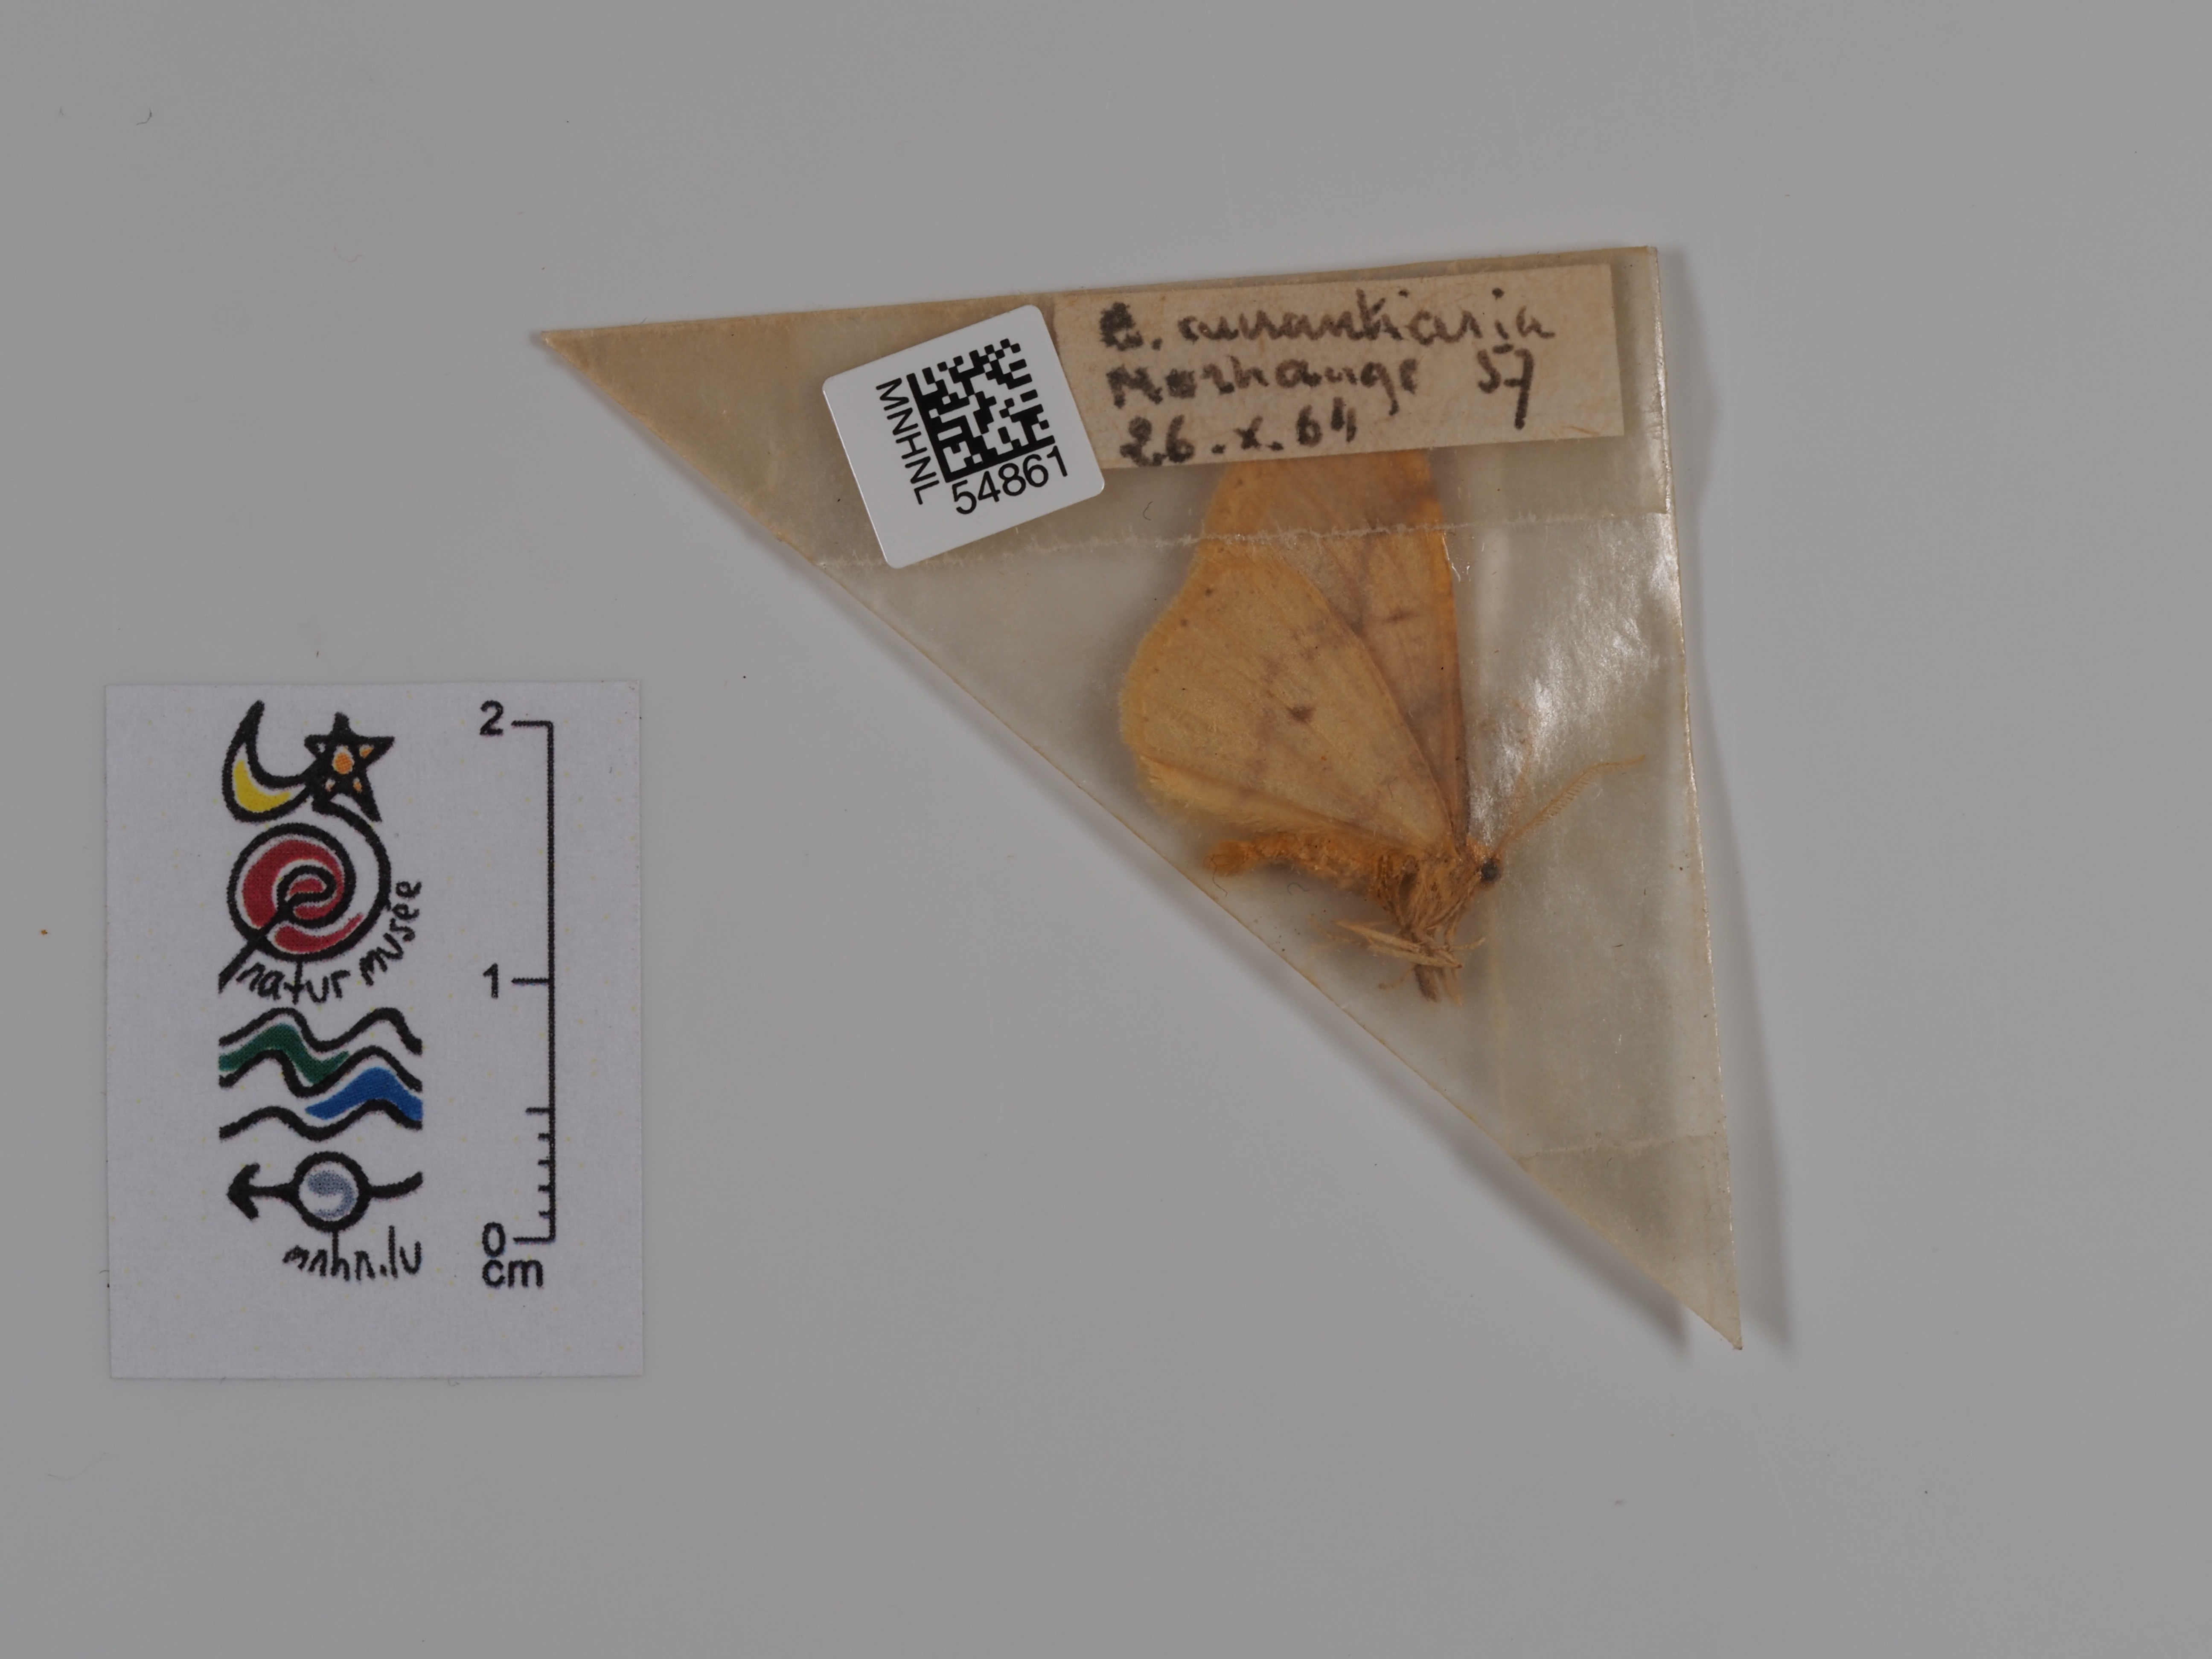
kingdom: Animalia
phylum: Arthropoda
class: Insecta
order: Lepidoptera
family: Geometridae
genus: Erannis
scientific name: Erannis
